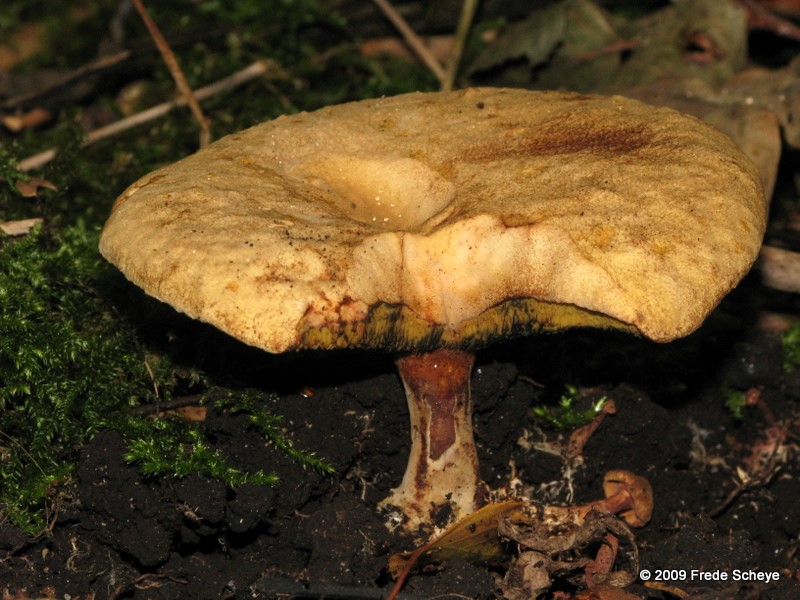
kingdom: Fungi
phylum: Basidiomycota
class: Agaricomycetes
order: Boletales
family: Paxillaceae
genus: Gyrodon
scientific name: Gyrodon lividus
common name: ellerørhat
